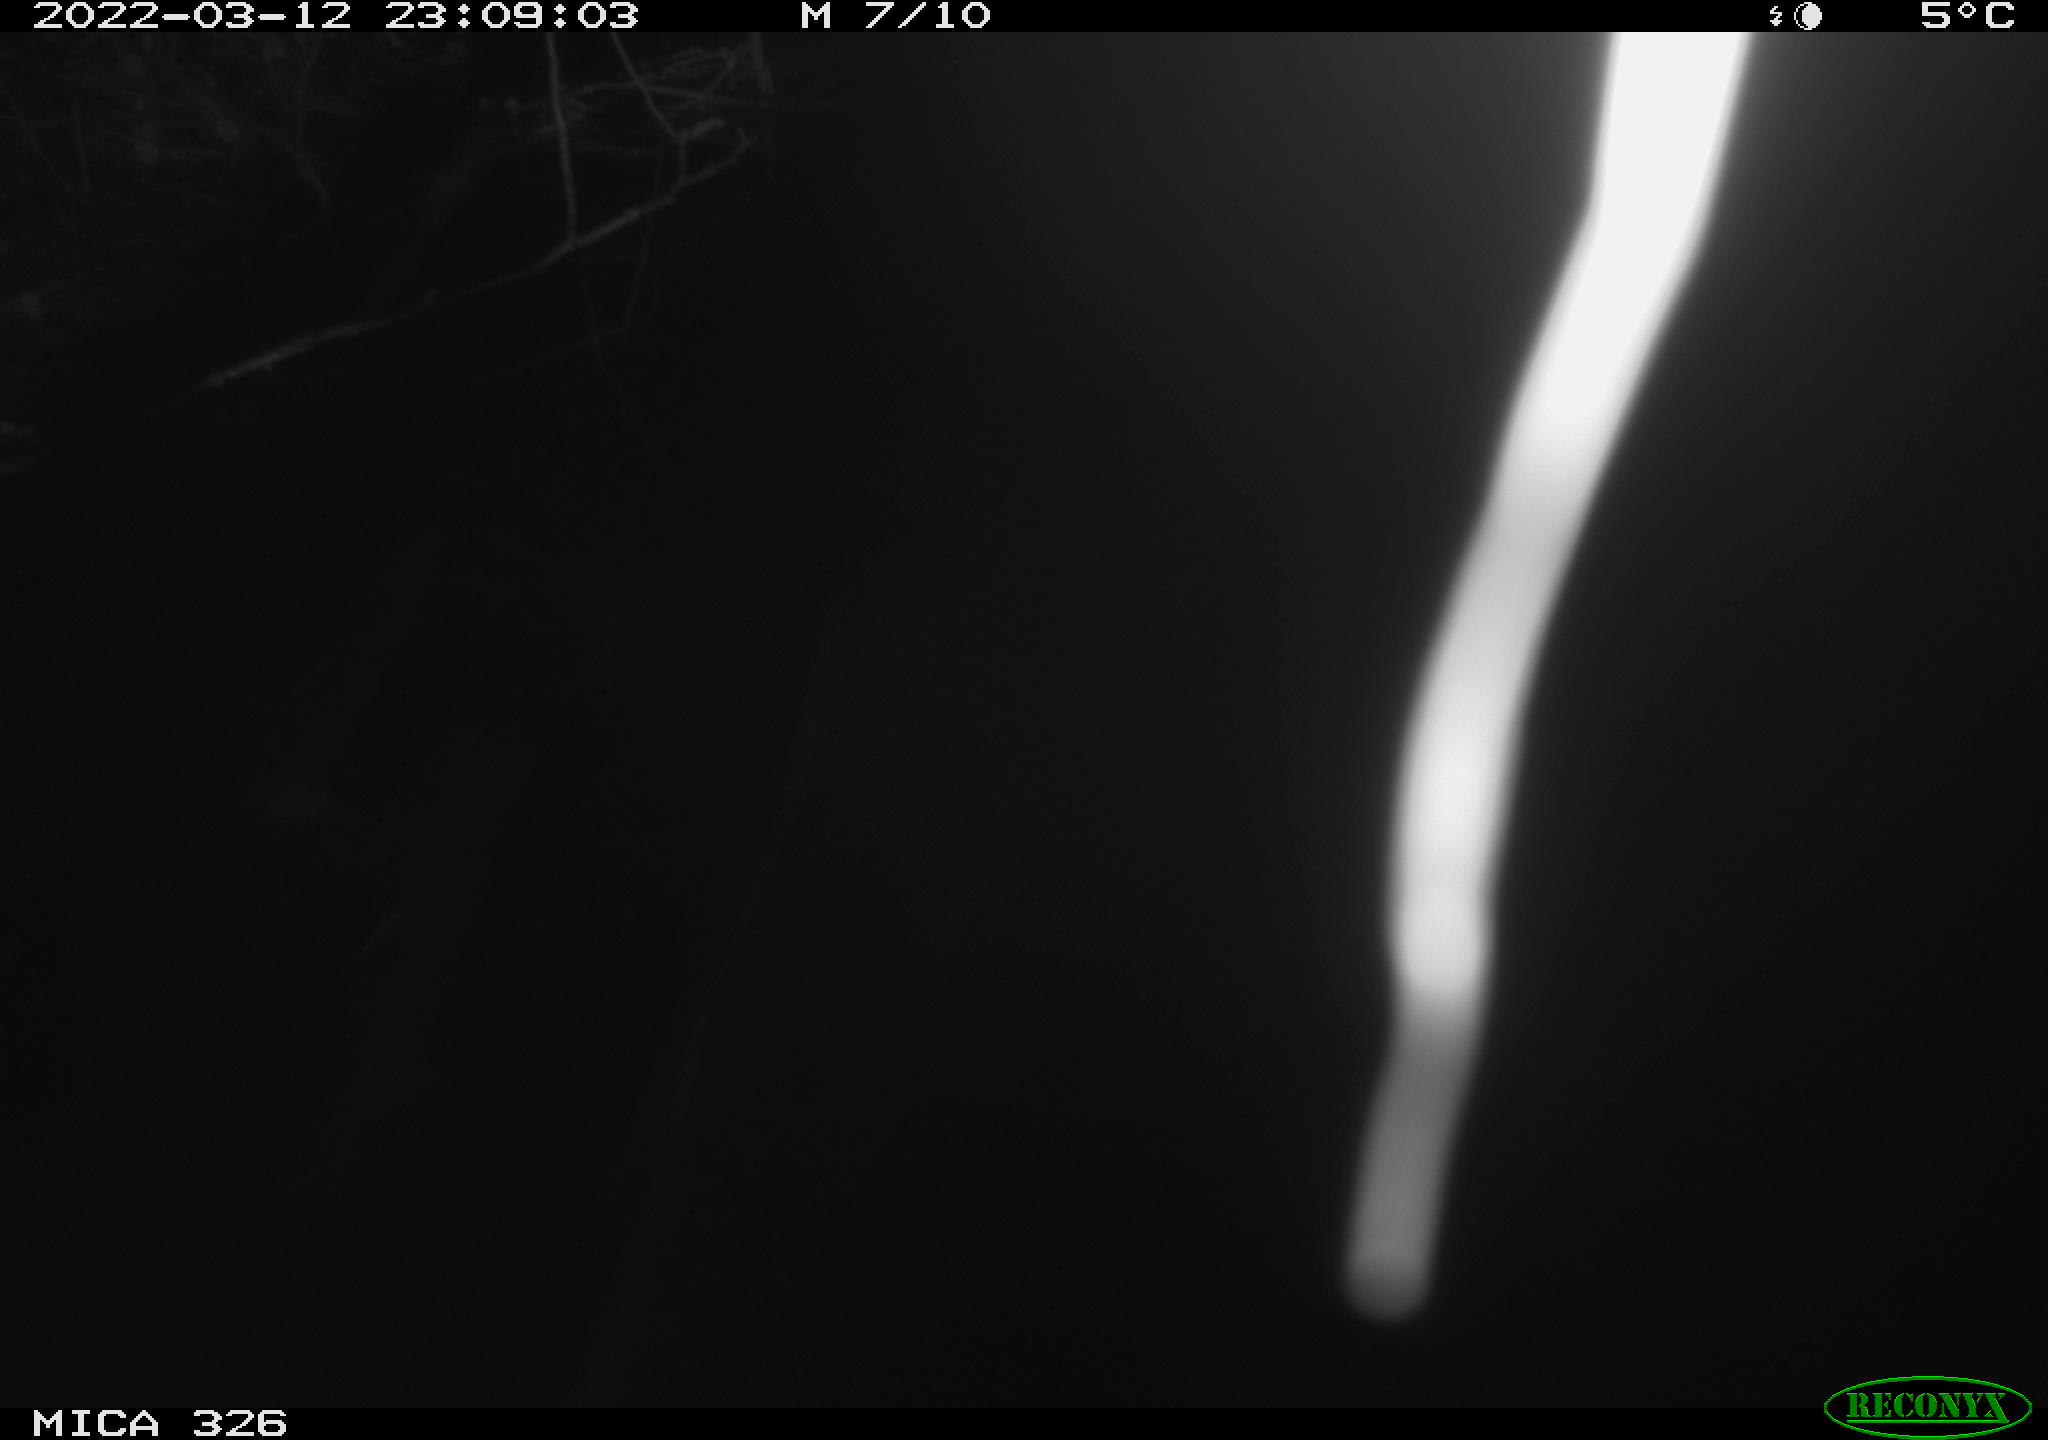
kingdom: Animalia
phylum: Chordata
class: Mammalia
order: Rodentia
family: Muridae
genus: Rattus
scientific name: Rattus norvegicus
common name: Brown rat
